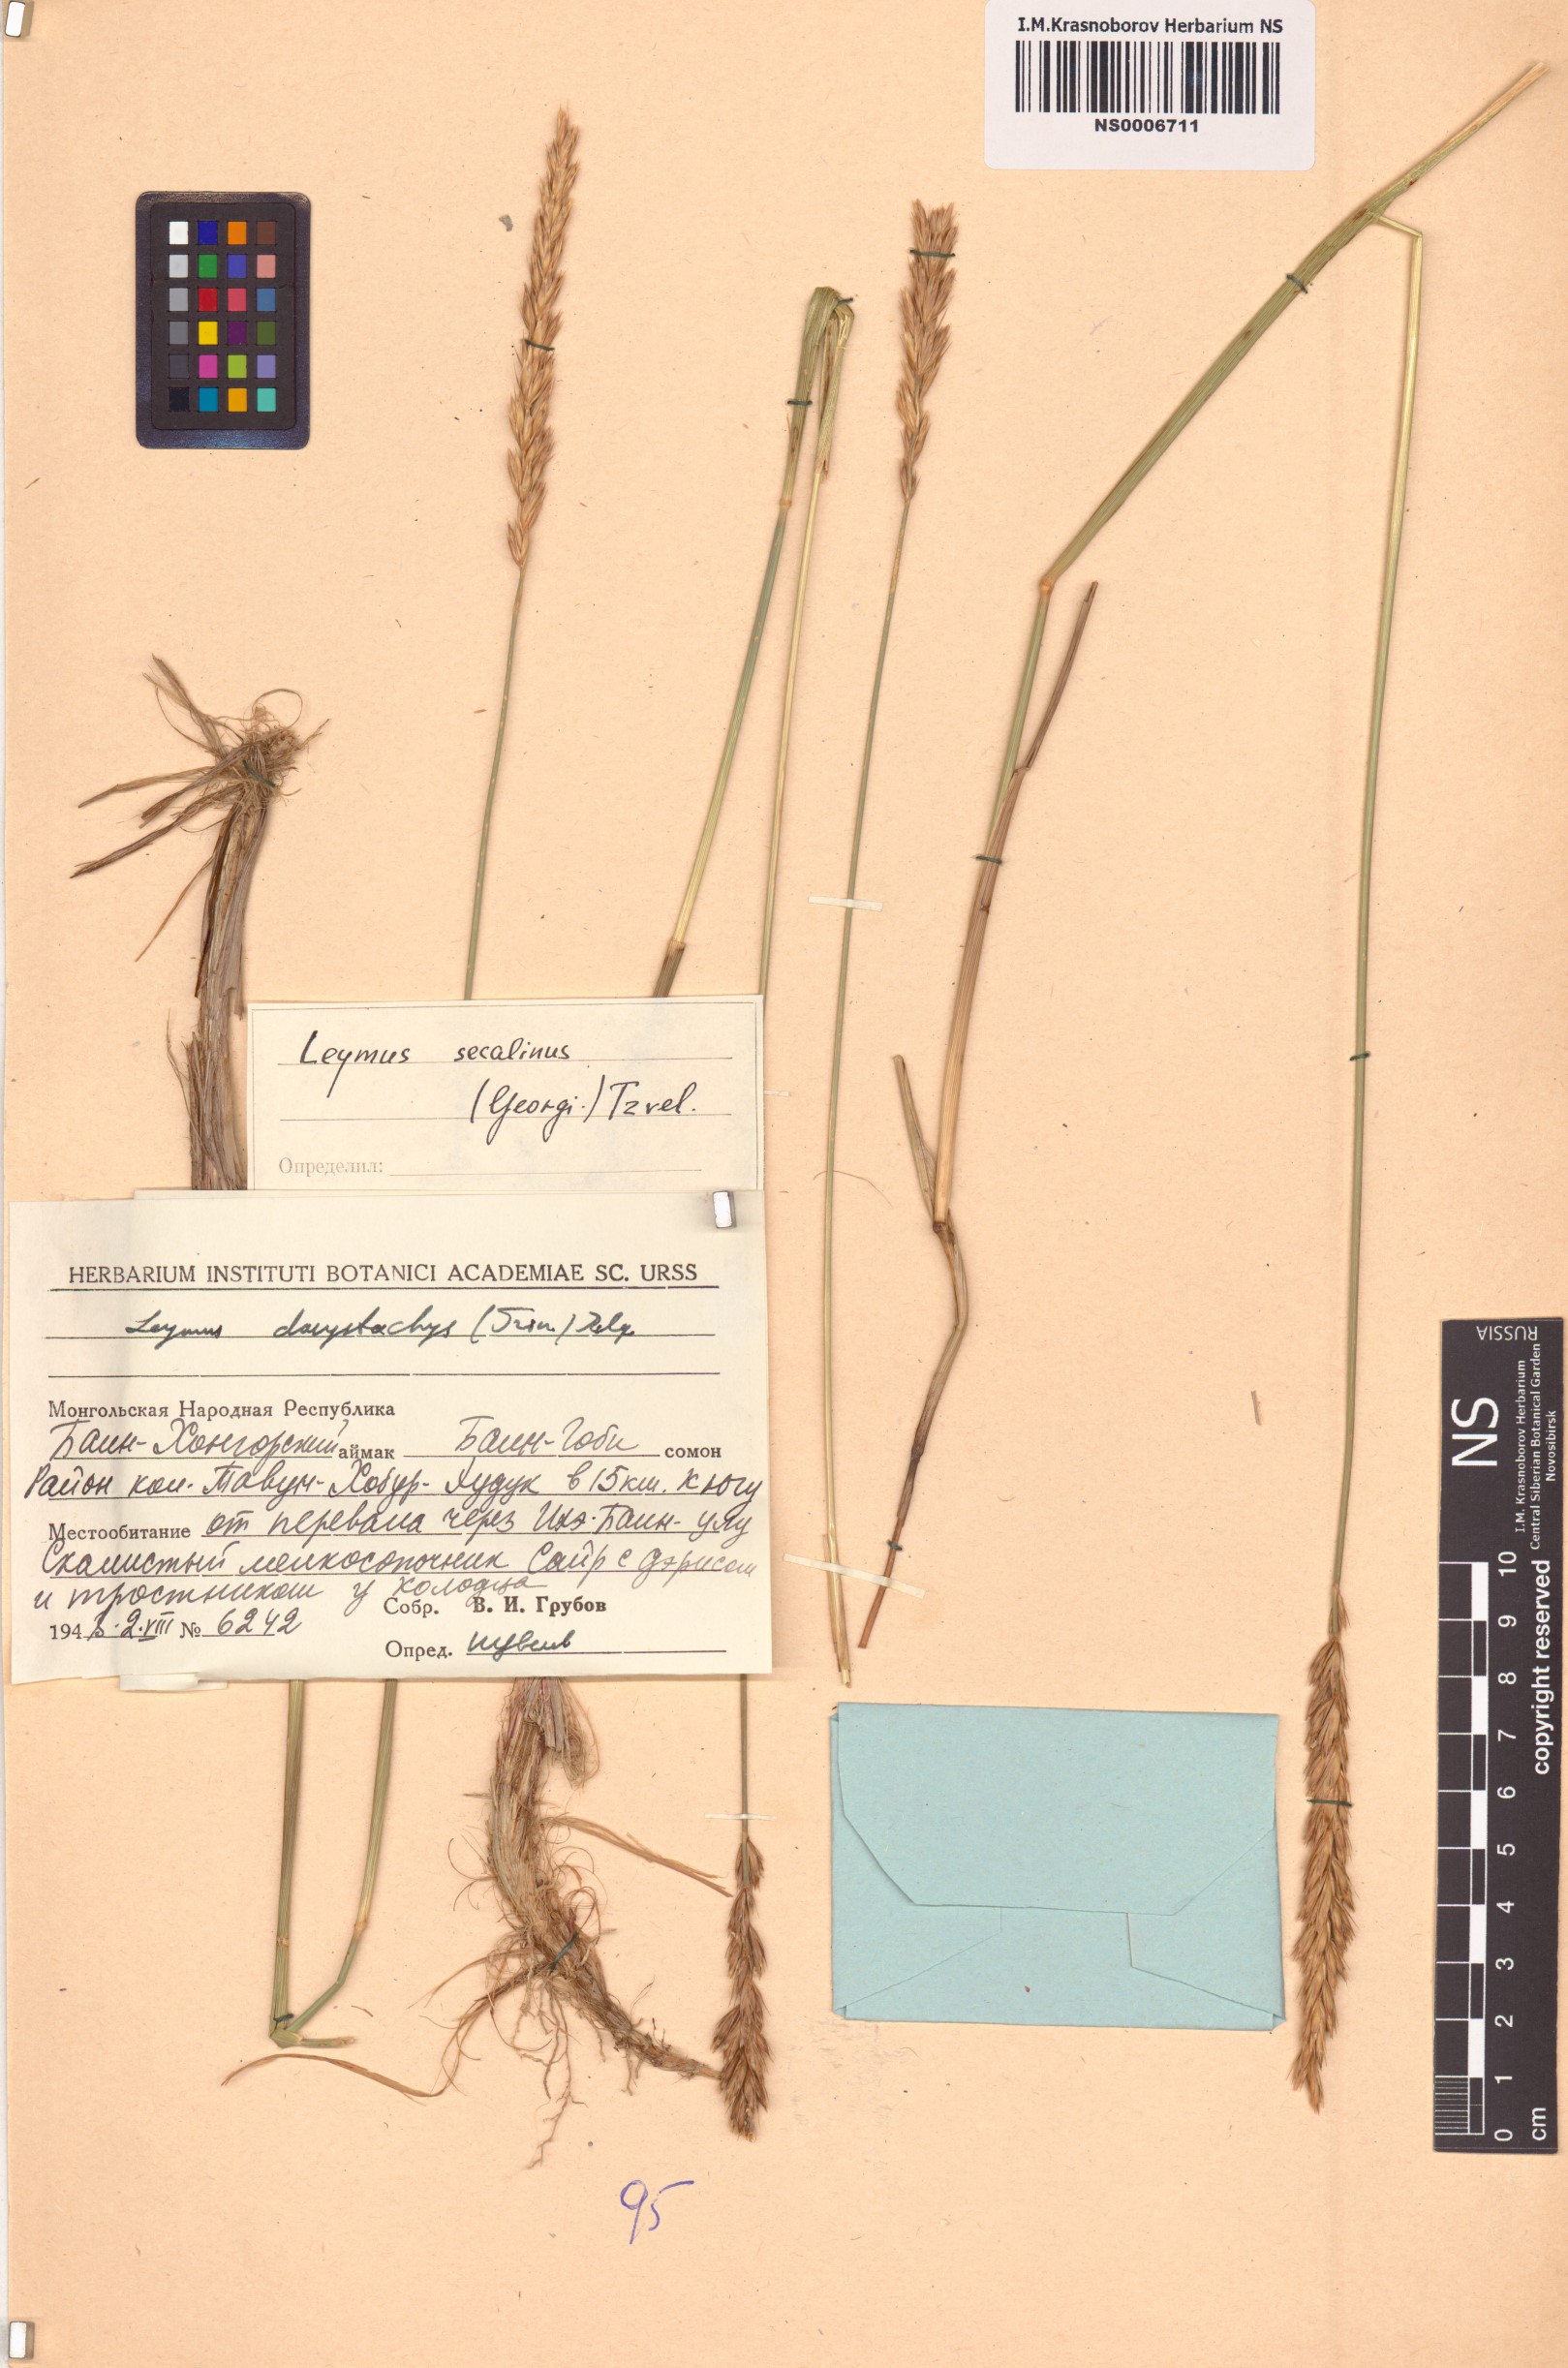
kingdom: Plantae
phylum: Tracheophyta
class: Liliopsida
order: Poales
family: Poaceae
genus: Leymus
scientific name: Leymus secalinus
